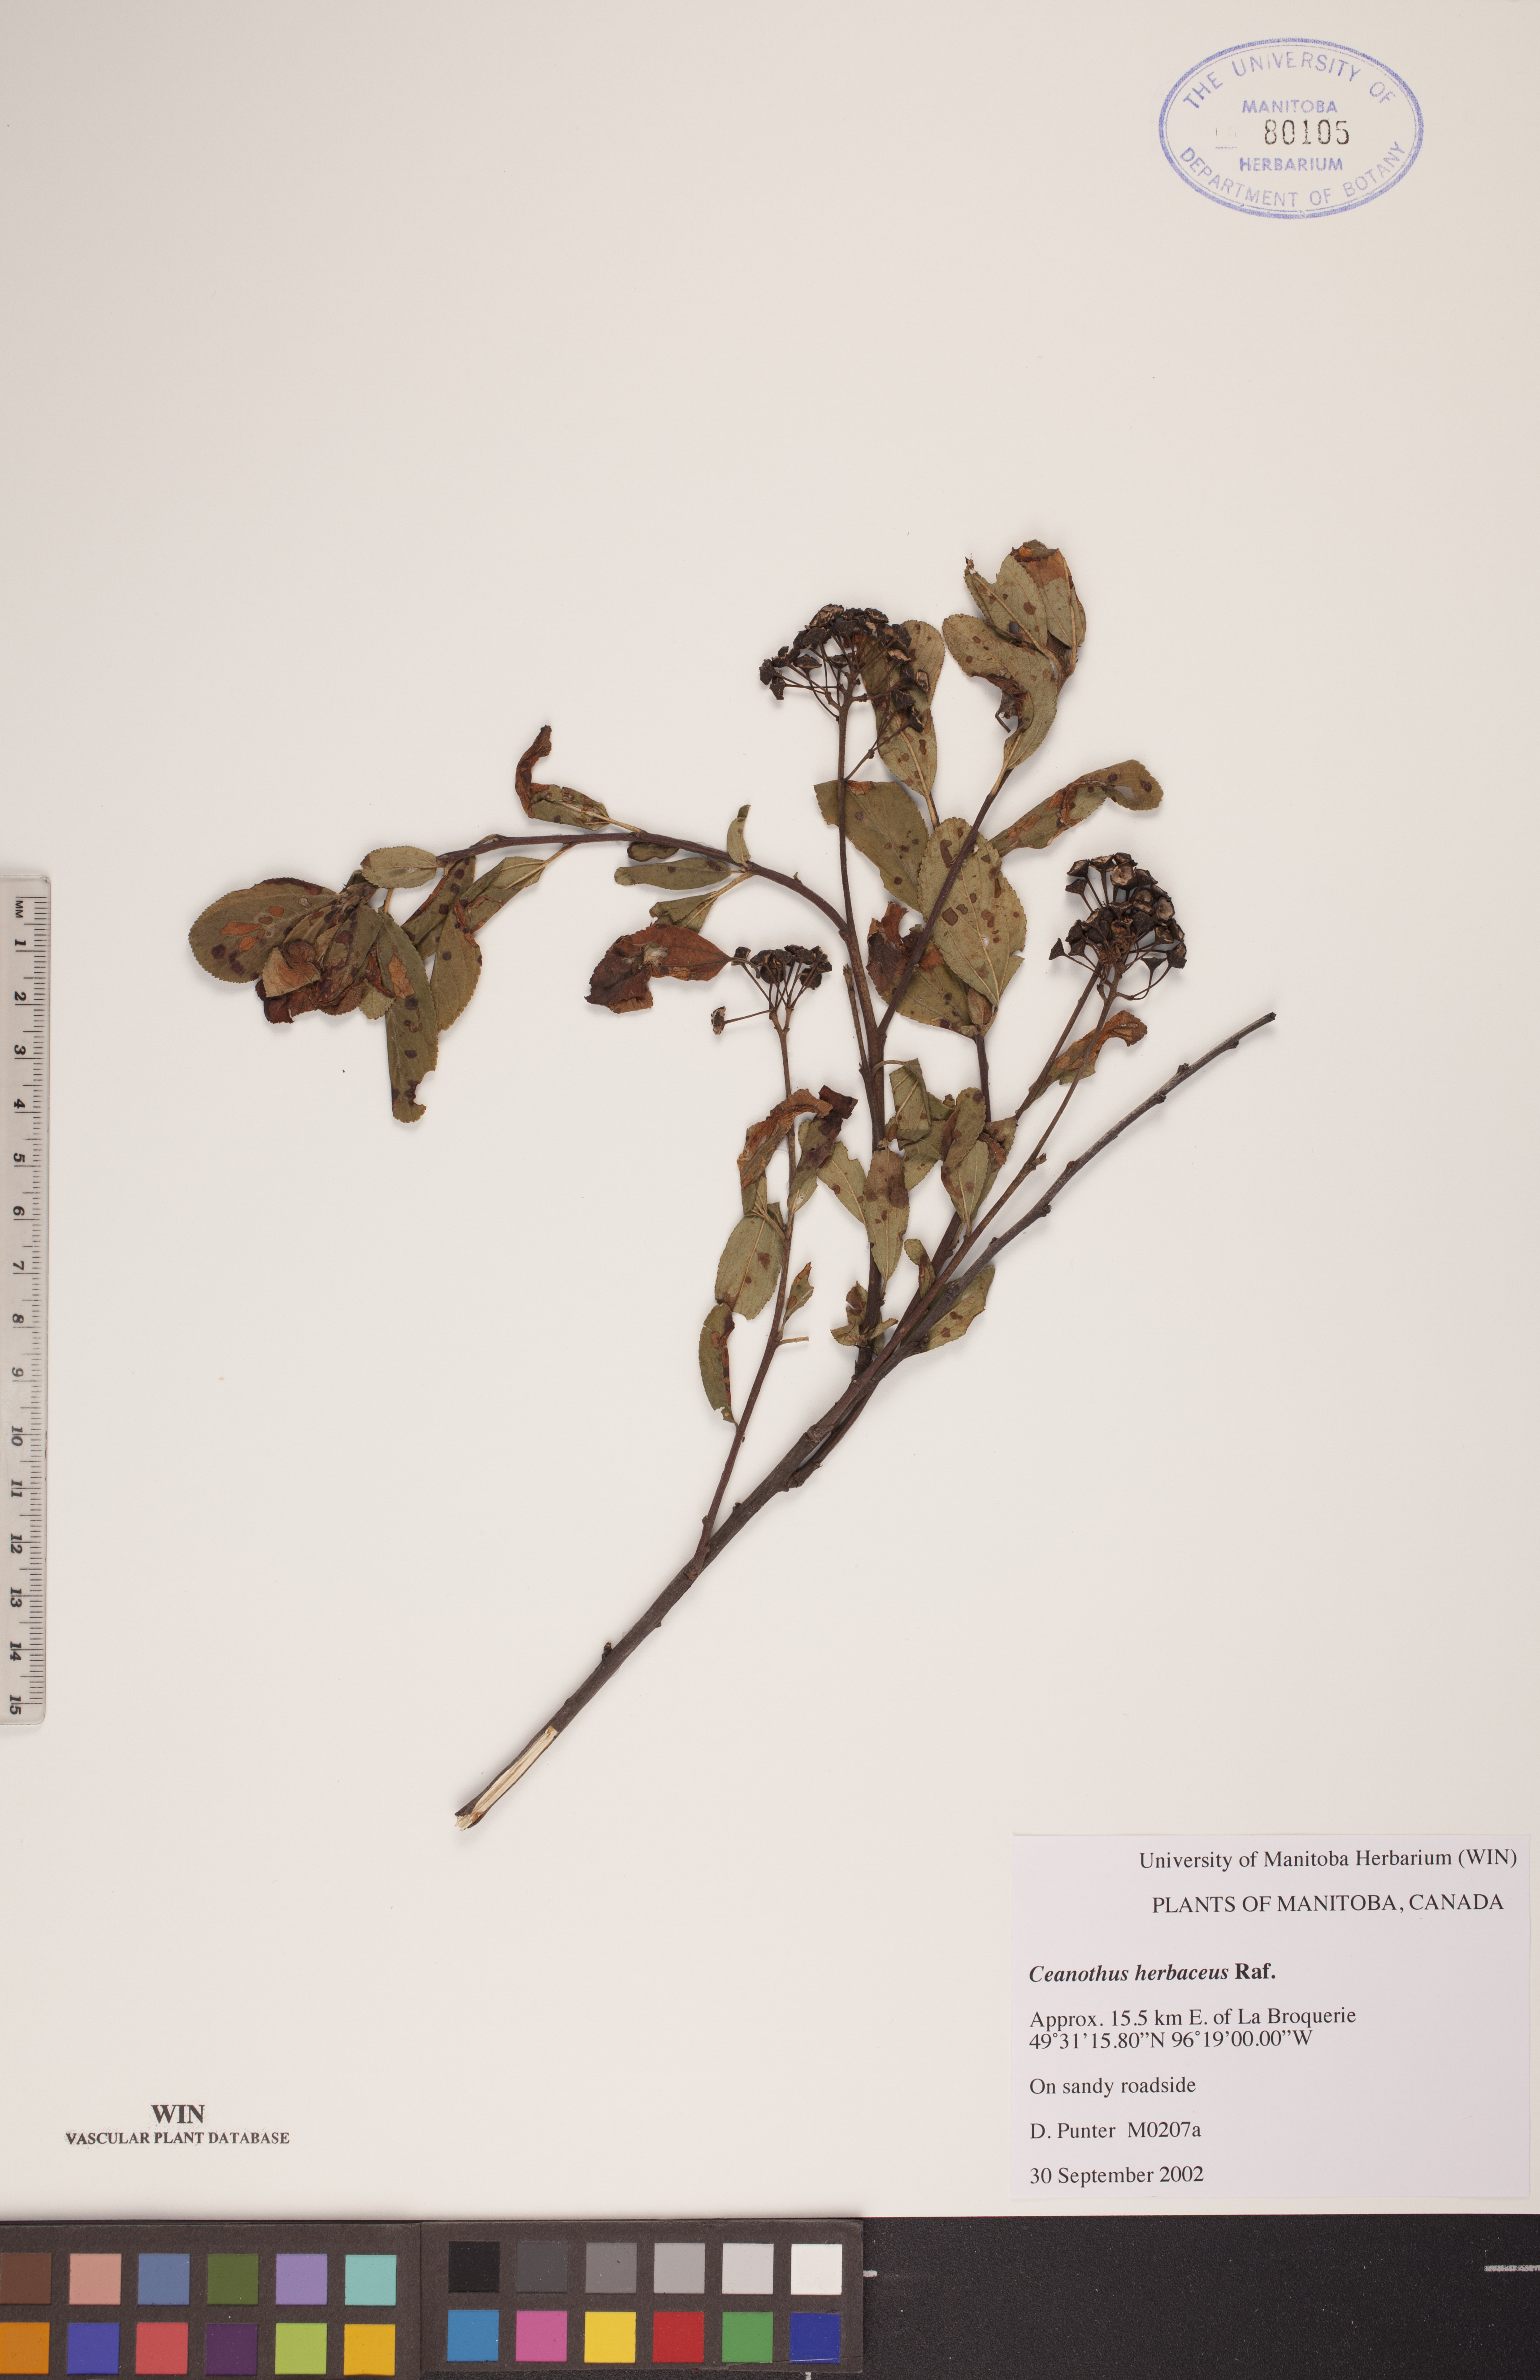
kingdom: Plantae
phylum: Tracheophyta
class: Magnoliopsida
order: Rosales
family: Rhamnaceae
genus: Ceanothus
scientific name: Ceanothus herbaceus
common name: Inland ceanothus
